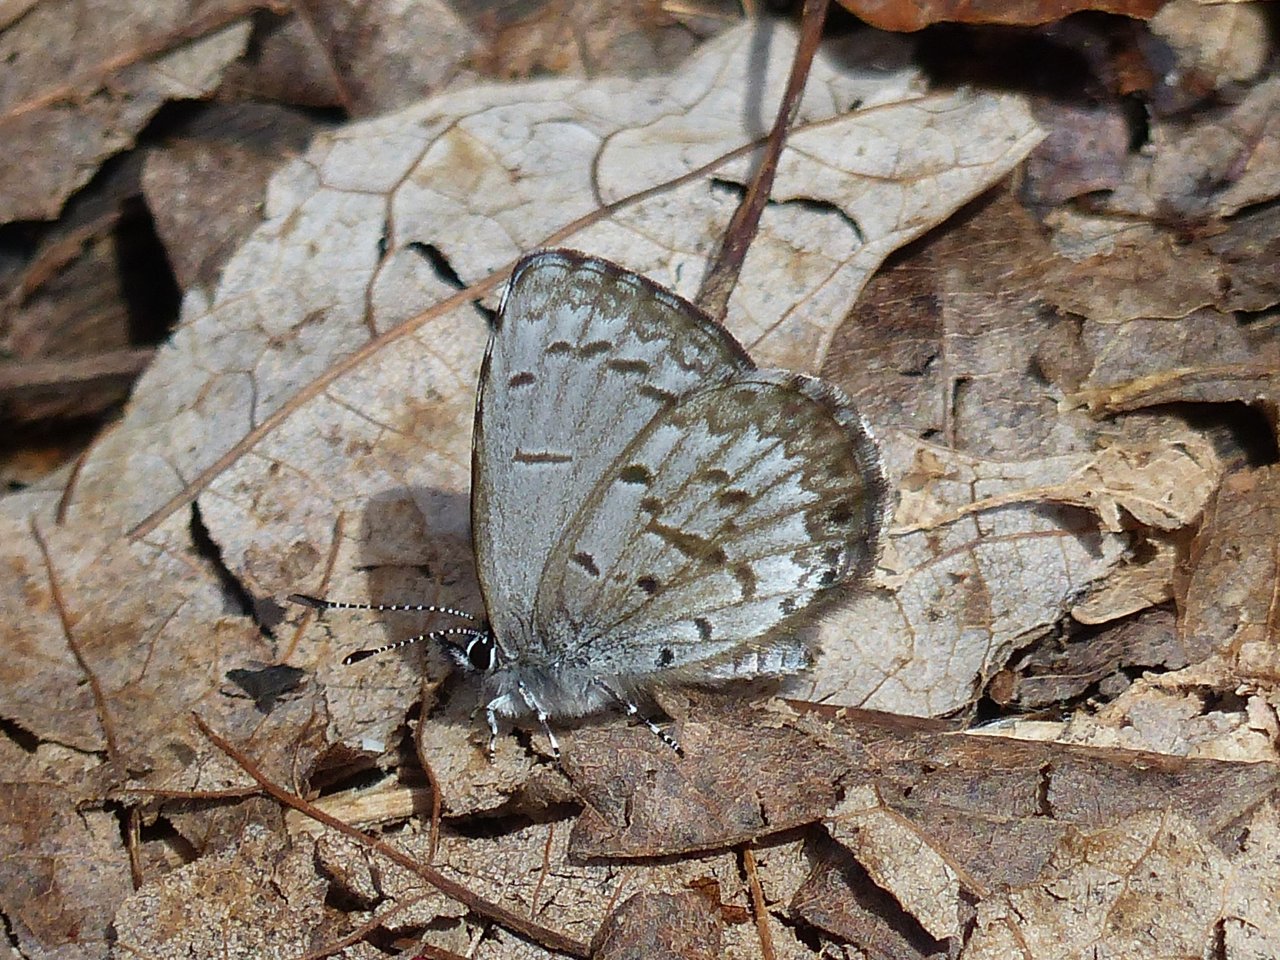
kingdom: Animalia
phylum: Arthropoda
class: Insecta
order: Lepidoptera
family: Lycaenidae
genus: Celastrina
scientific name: Celastrina lucia
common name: Northern Spring Azure
